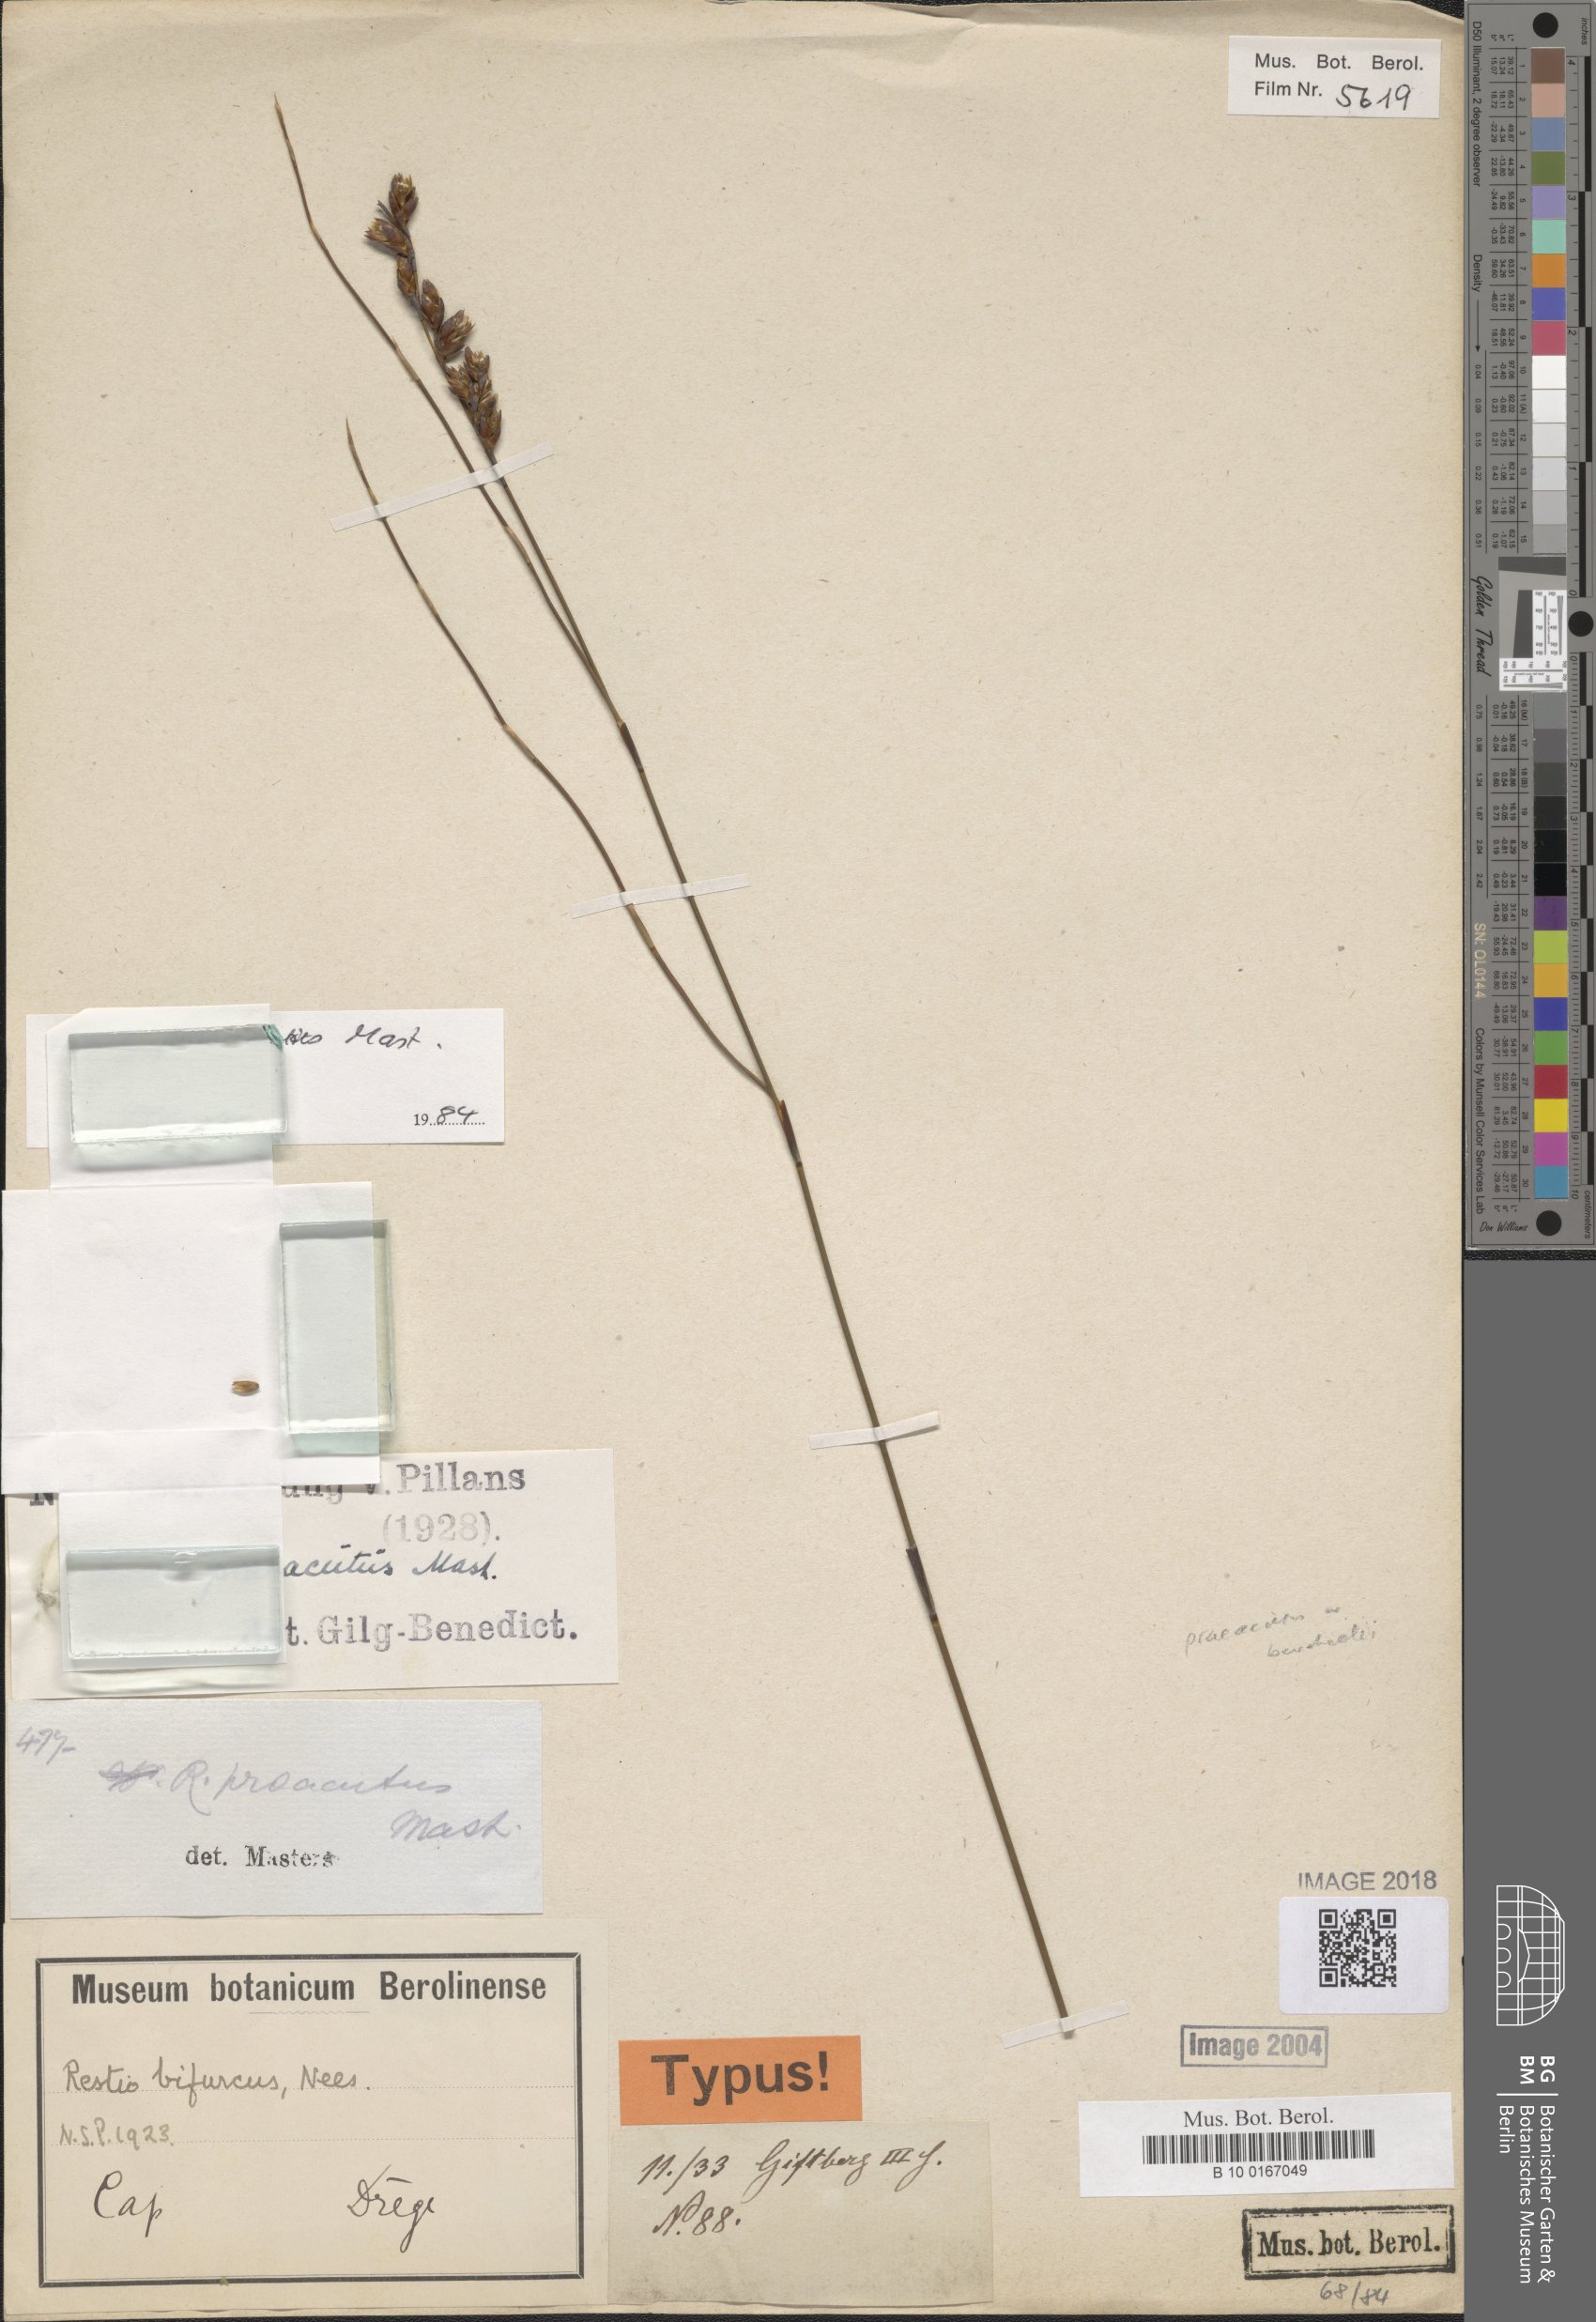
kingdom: Plantae
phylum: Tracheophyta
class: Liliopsida
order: Poales
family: Restionaceae
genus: Restio
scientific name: Restio praeacutus
